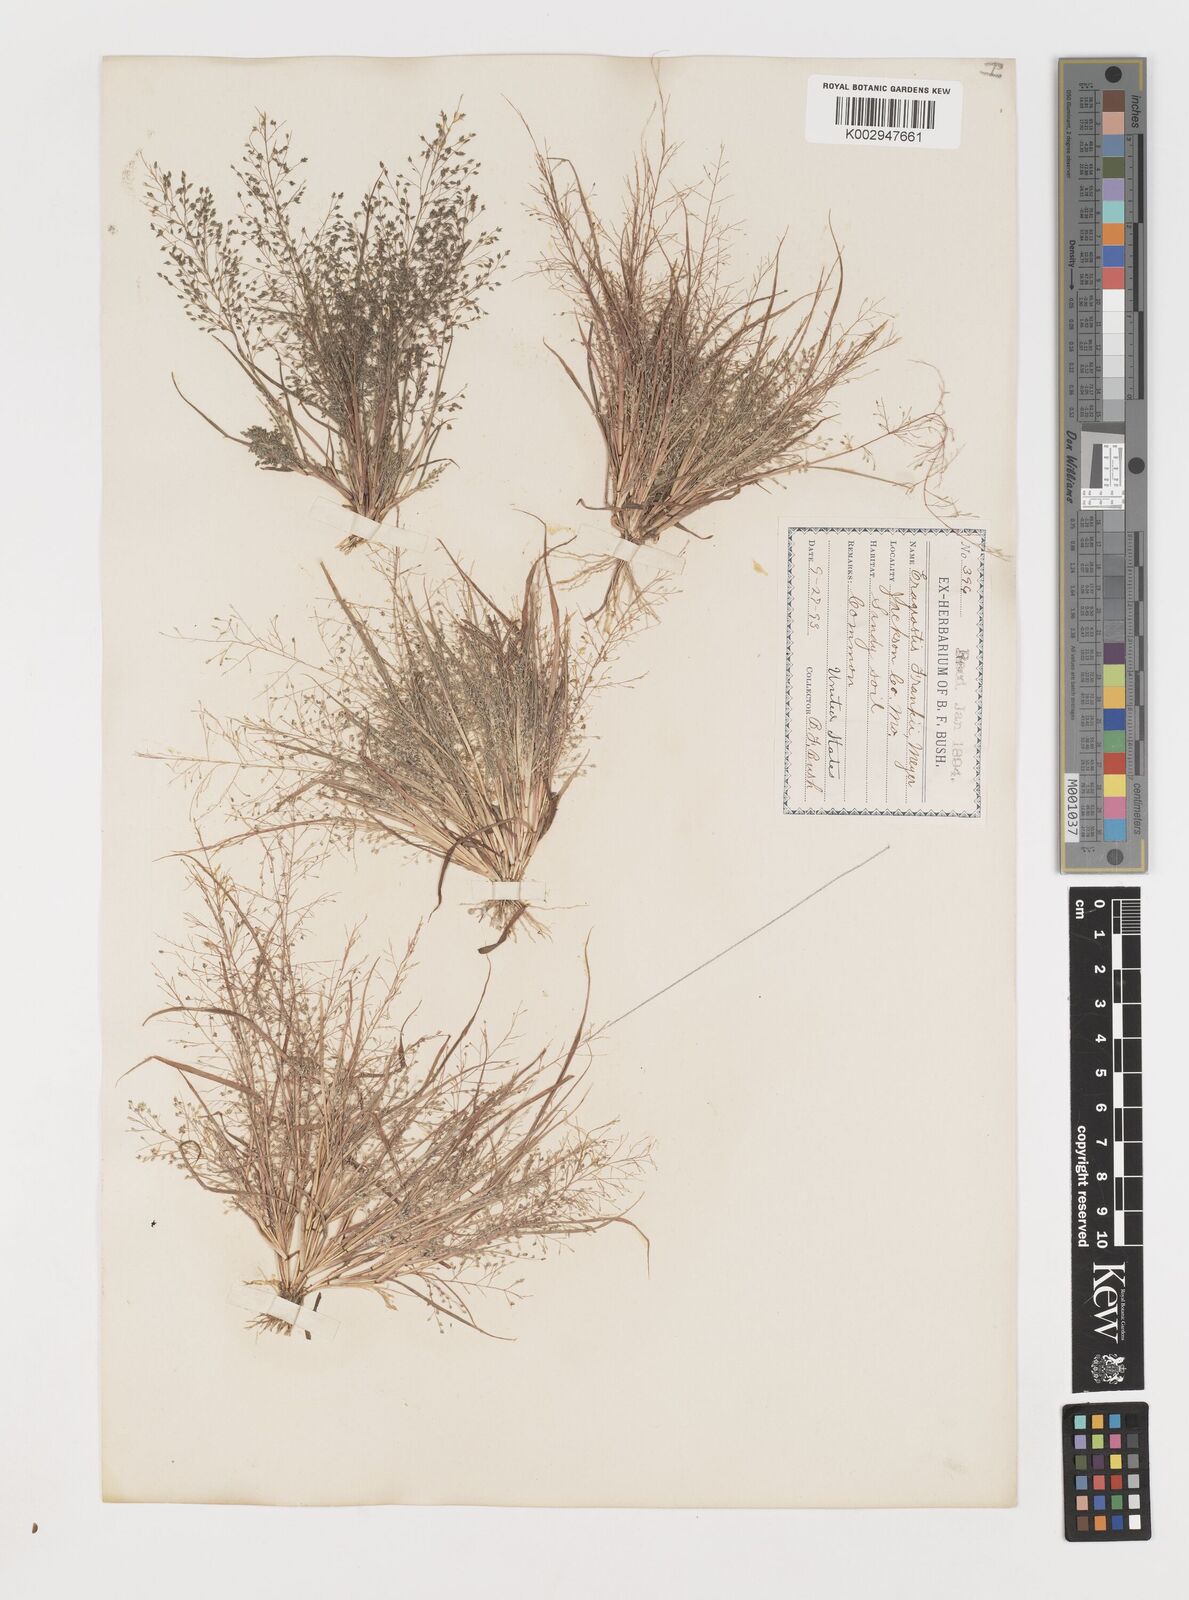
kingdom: Plantae
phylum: Tracheophyta
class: Liliopsida
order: Poales
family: Poaceae
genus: Eragrostis
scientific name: Eragrostis frankii
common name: Frank's lovegrass
